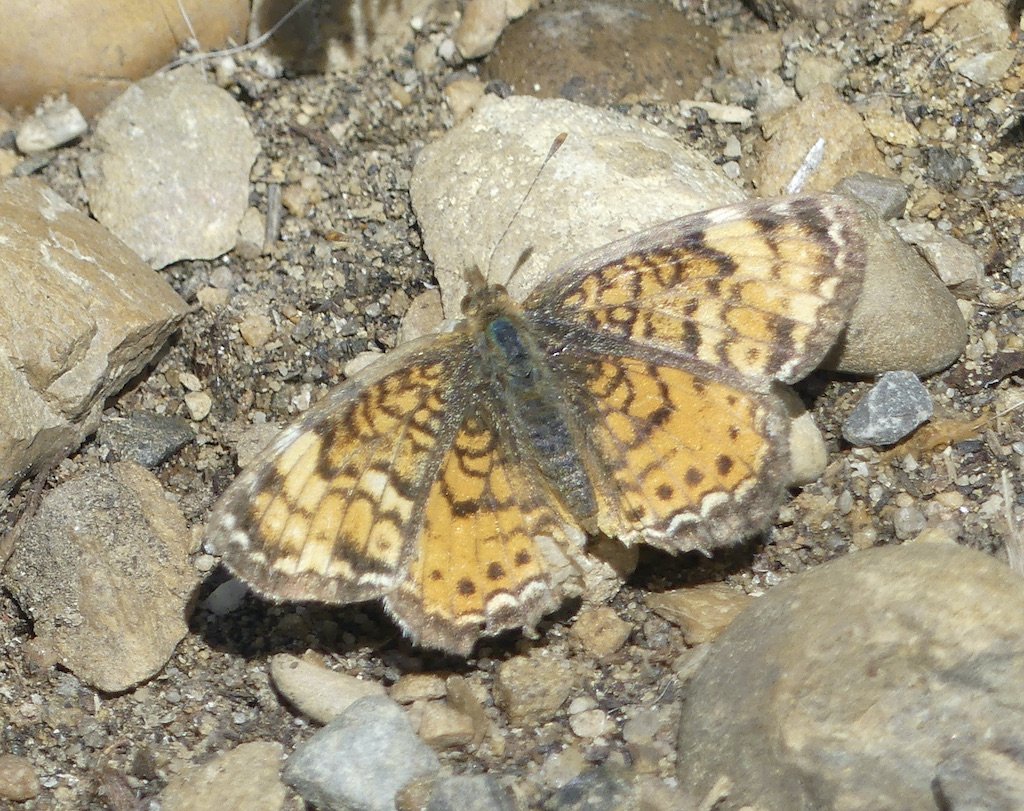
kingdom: Animalia
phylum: Arthropoda
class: Insecta
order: Lepidoptera
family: Nymphalidae
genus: Phyciodes
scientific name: Phyciodes tharos
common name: Northern Crescent
